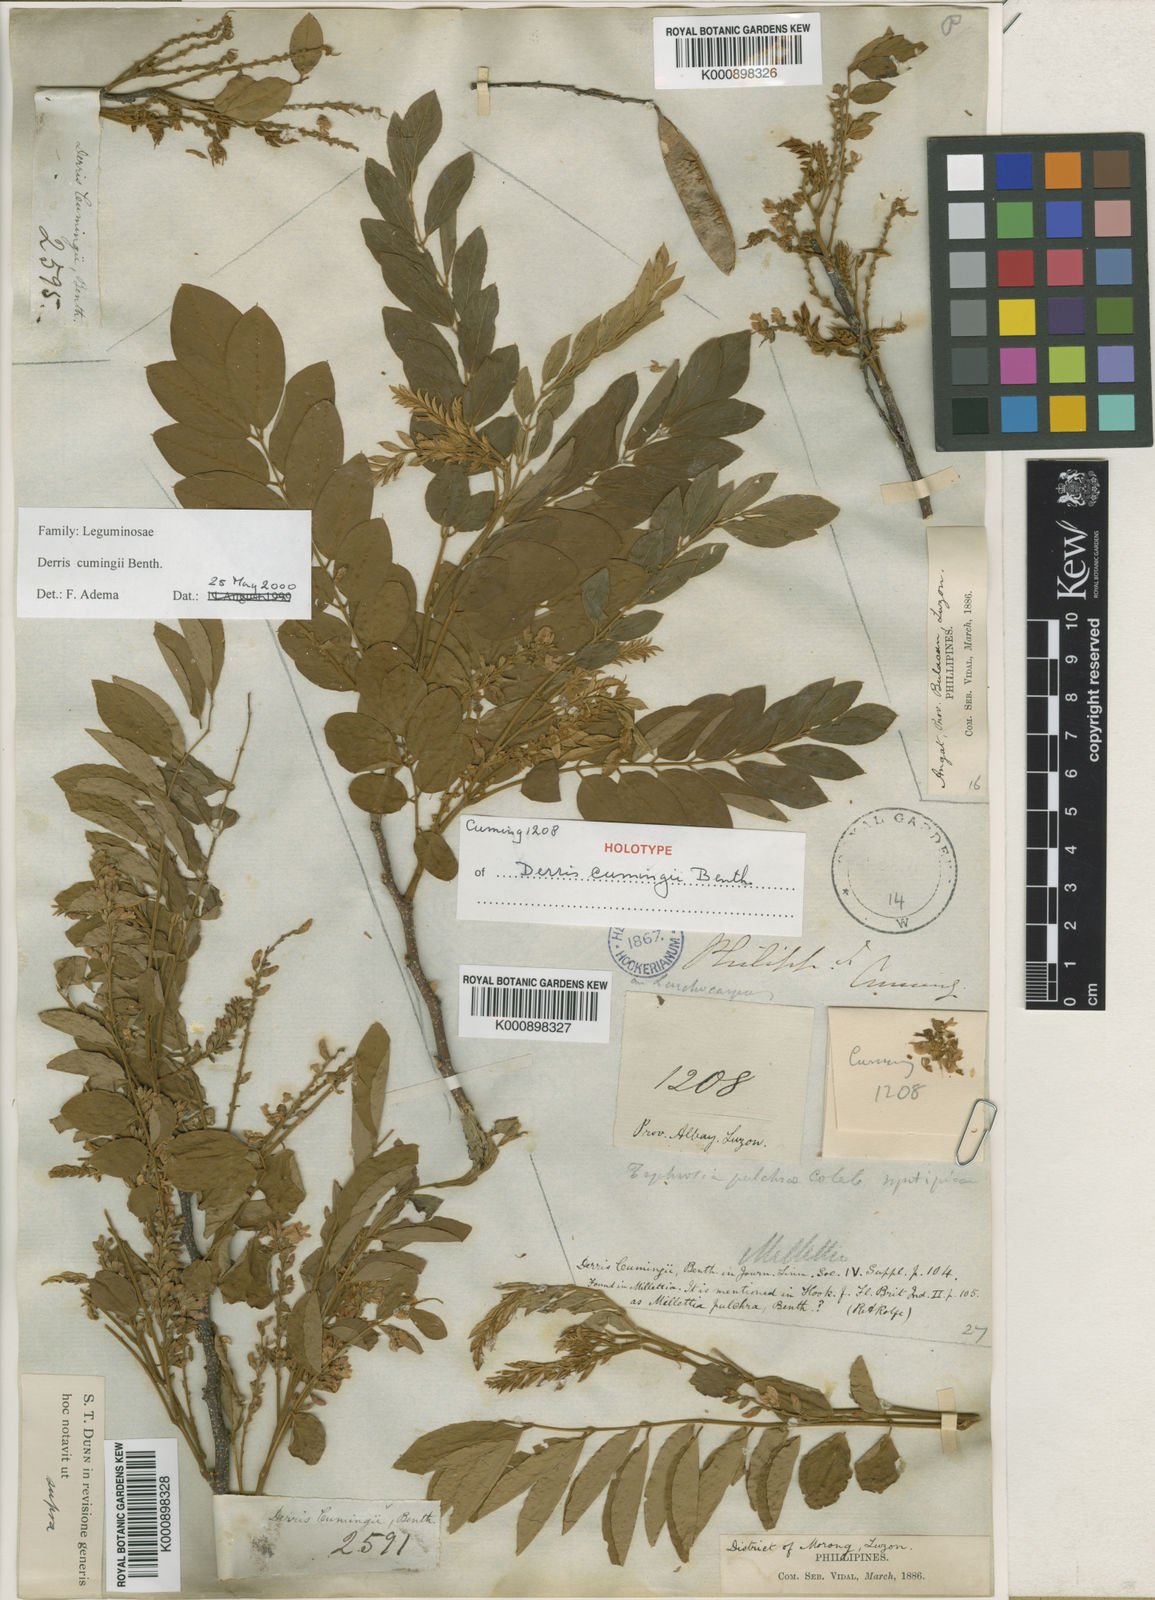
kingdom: Plantae
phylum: Tracheophyta
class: Magnoliopsida
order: Fabales
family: Fabaceae
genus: Brachypterum
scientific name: Brachypterum cumingii
